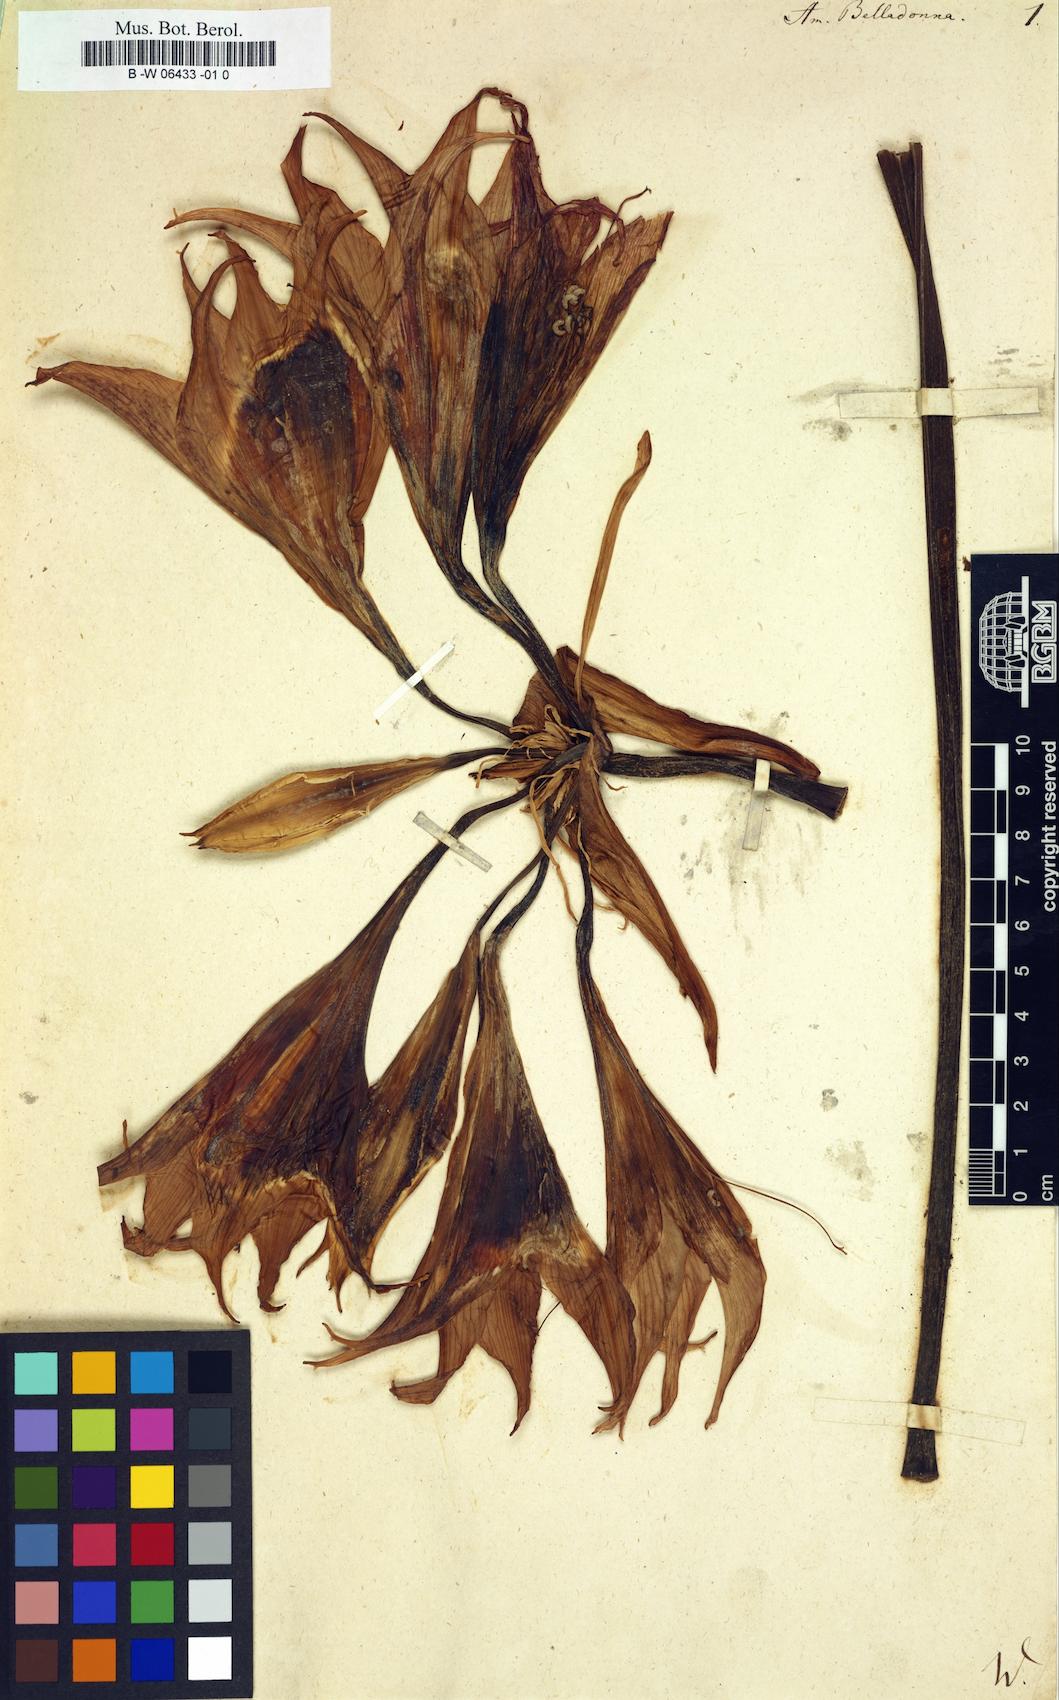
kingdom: Plantae
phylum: Tracheophyta
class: Liliopsida
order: Asparagales
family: Amaryllidaceae
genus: Amaryllis
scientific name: Amaryllis belladonna
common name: Jersey lily
